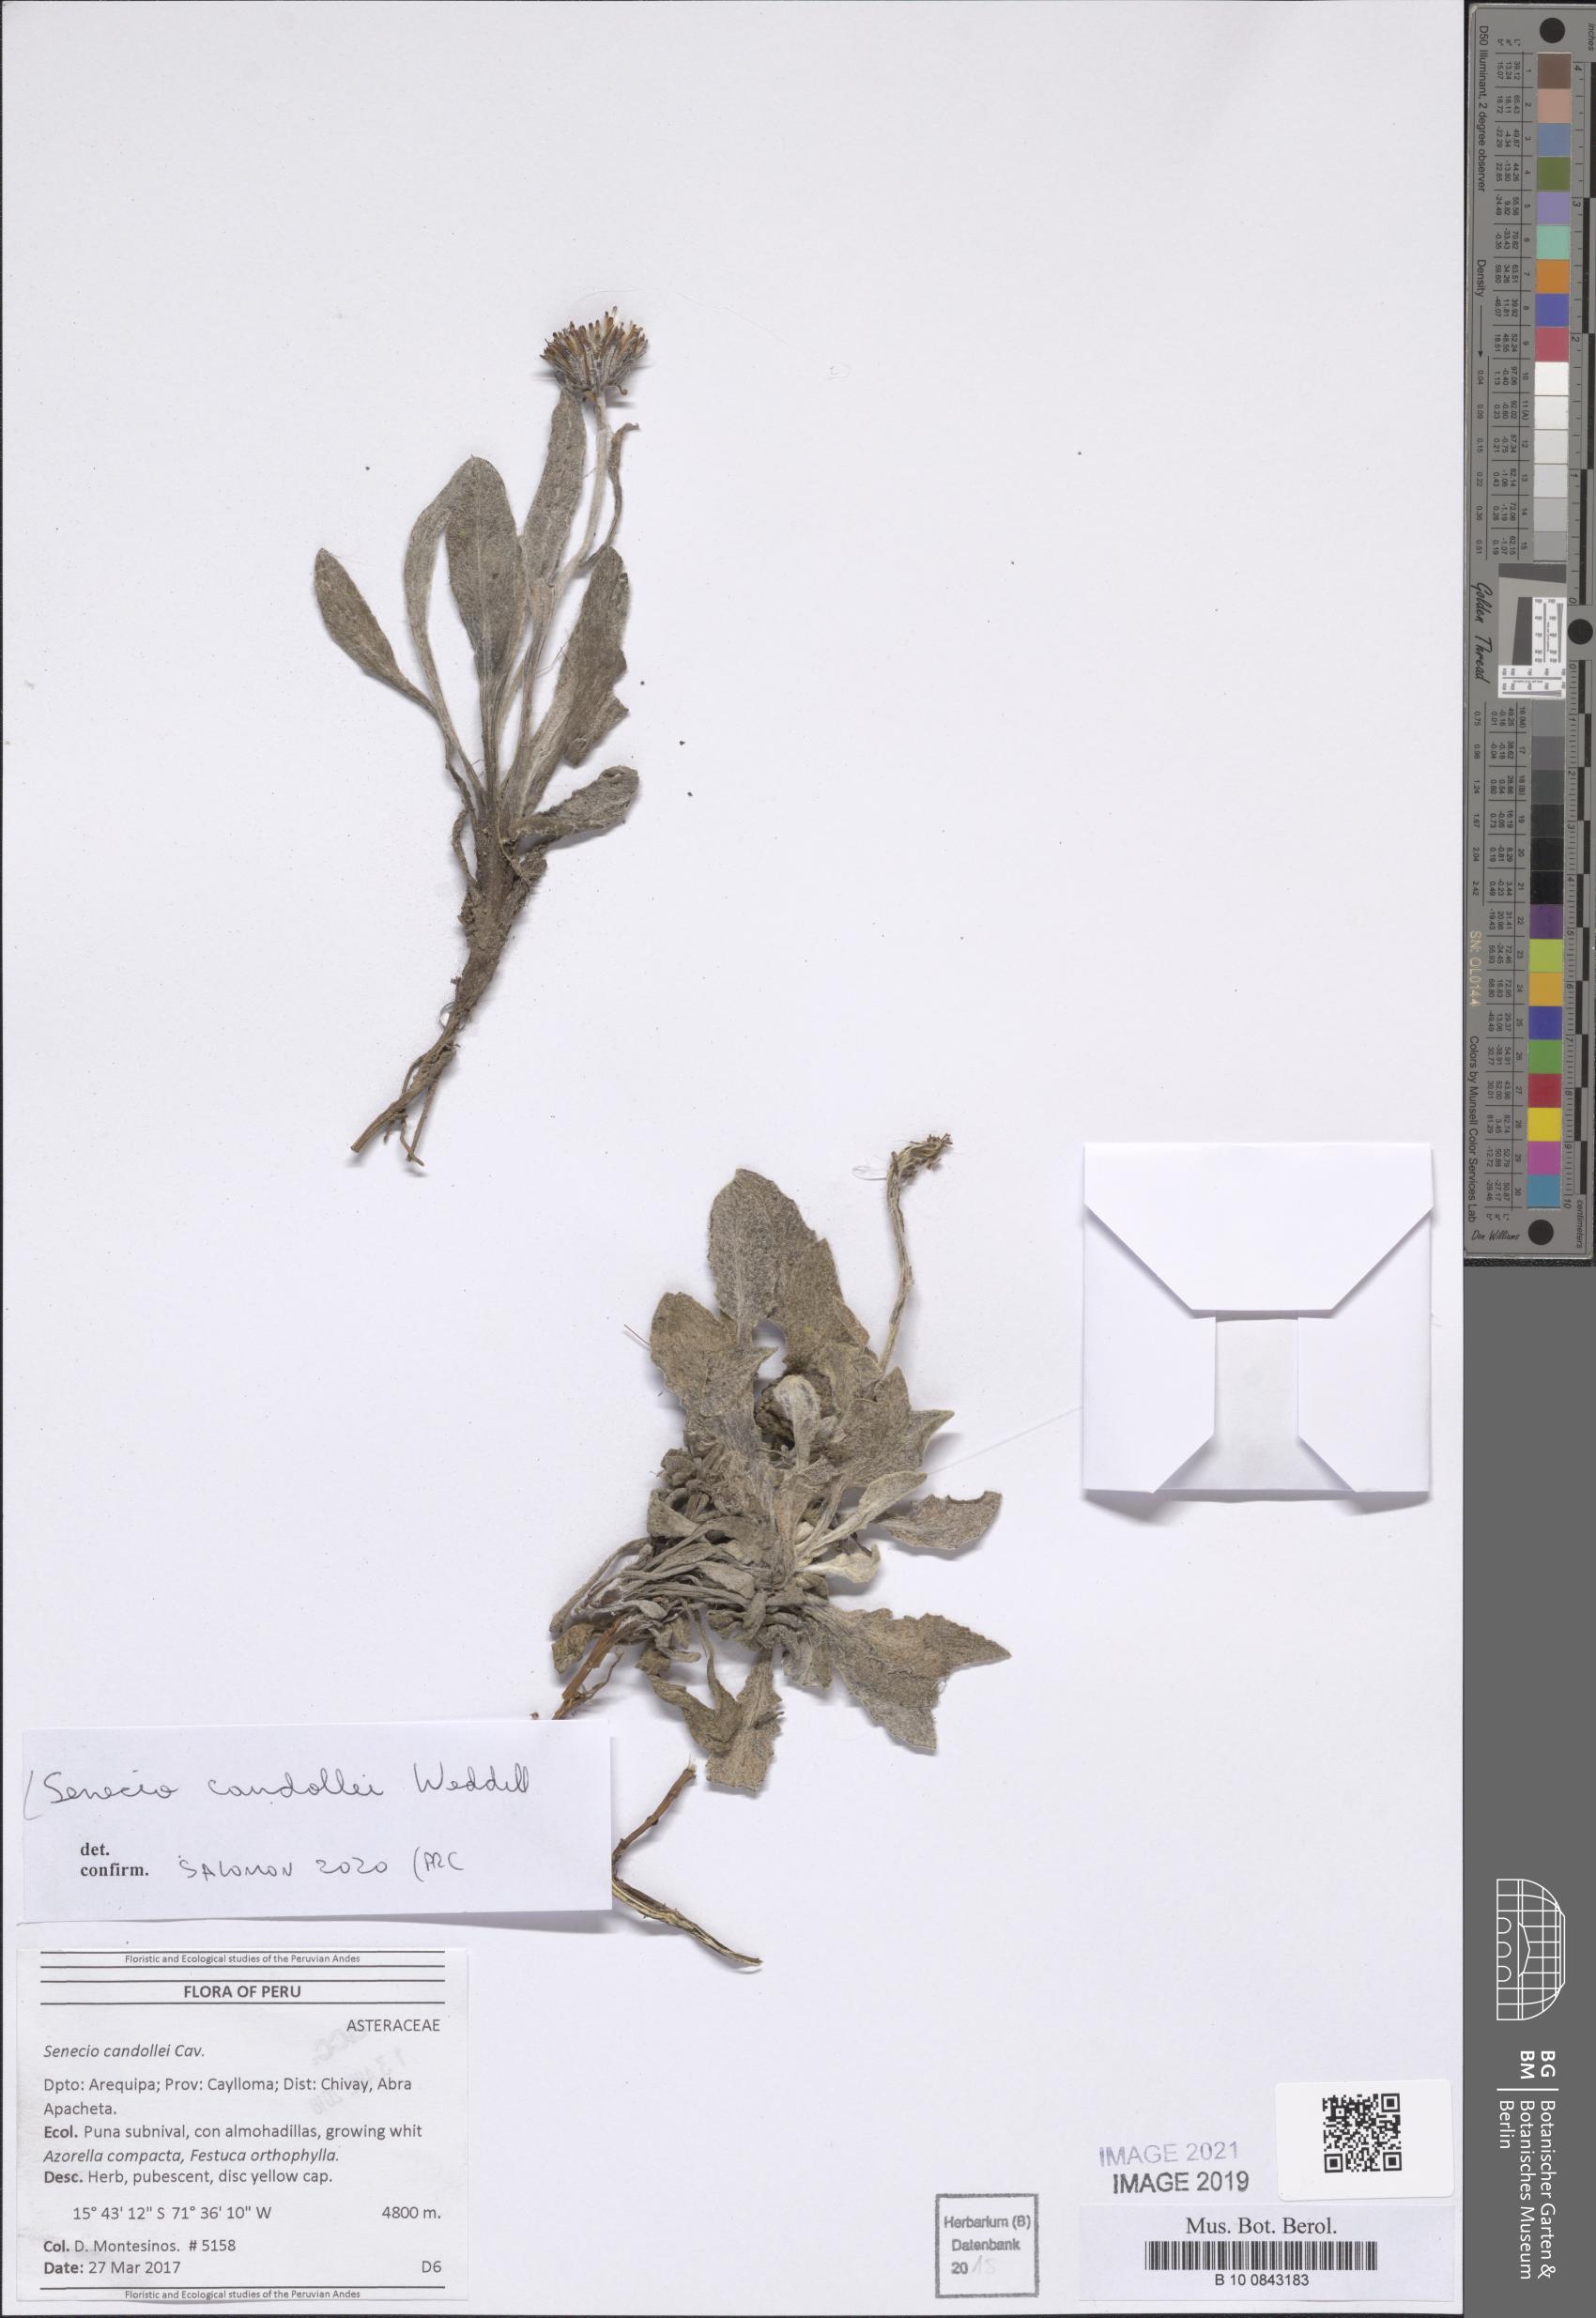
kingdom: Plantae
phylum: Tracheophyta
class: Magnoliopsida
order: Asterales
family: Asteraceae
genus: Culcitium
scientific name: Culcitium humile
